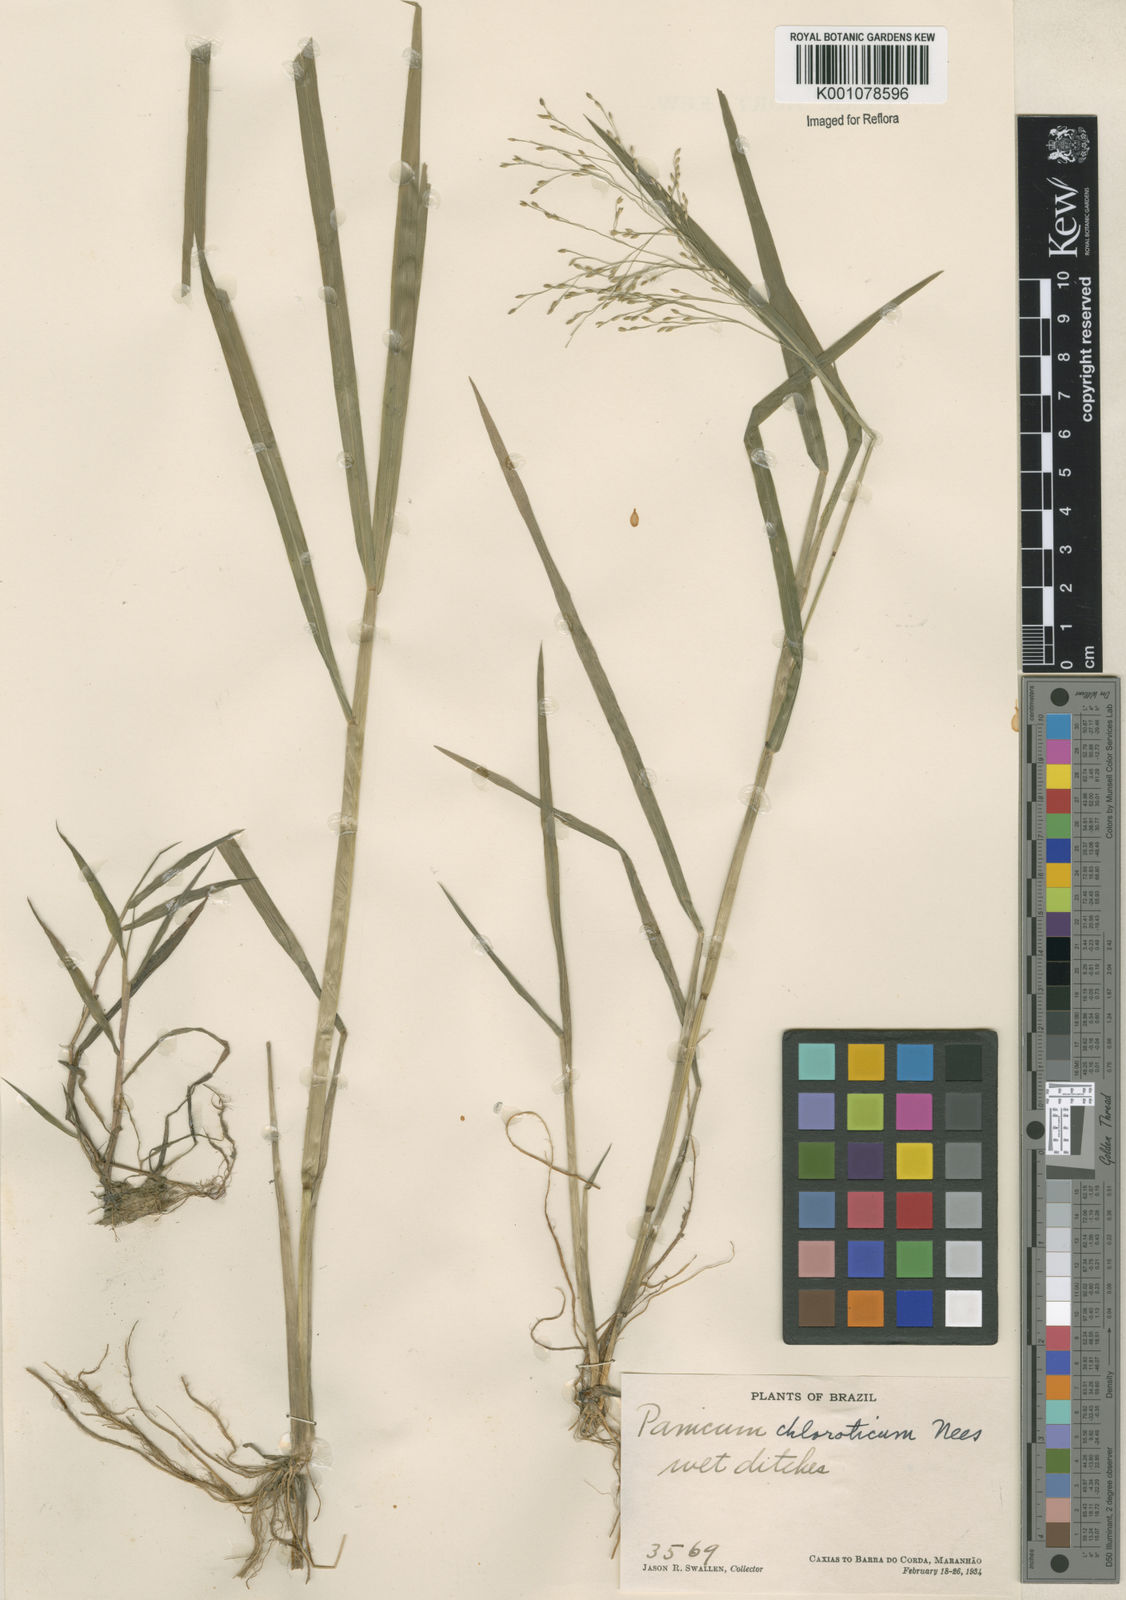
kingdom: Plantae
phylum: Tracheophyta
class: Liliopsida
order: Poales
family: Poaceae
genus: Panicum
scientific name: Panicum dichotomiflorum
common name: Autumn millet
